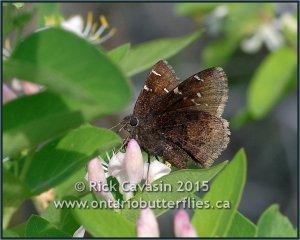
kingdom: Animalia
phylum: Arthropoda
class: Insecta
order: Lepidoptera
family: Hesperiidae
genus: Autochton
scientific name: Autochton
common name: Northern Cloudywing
